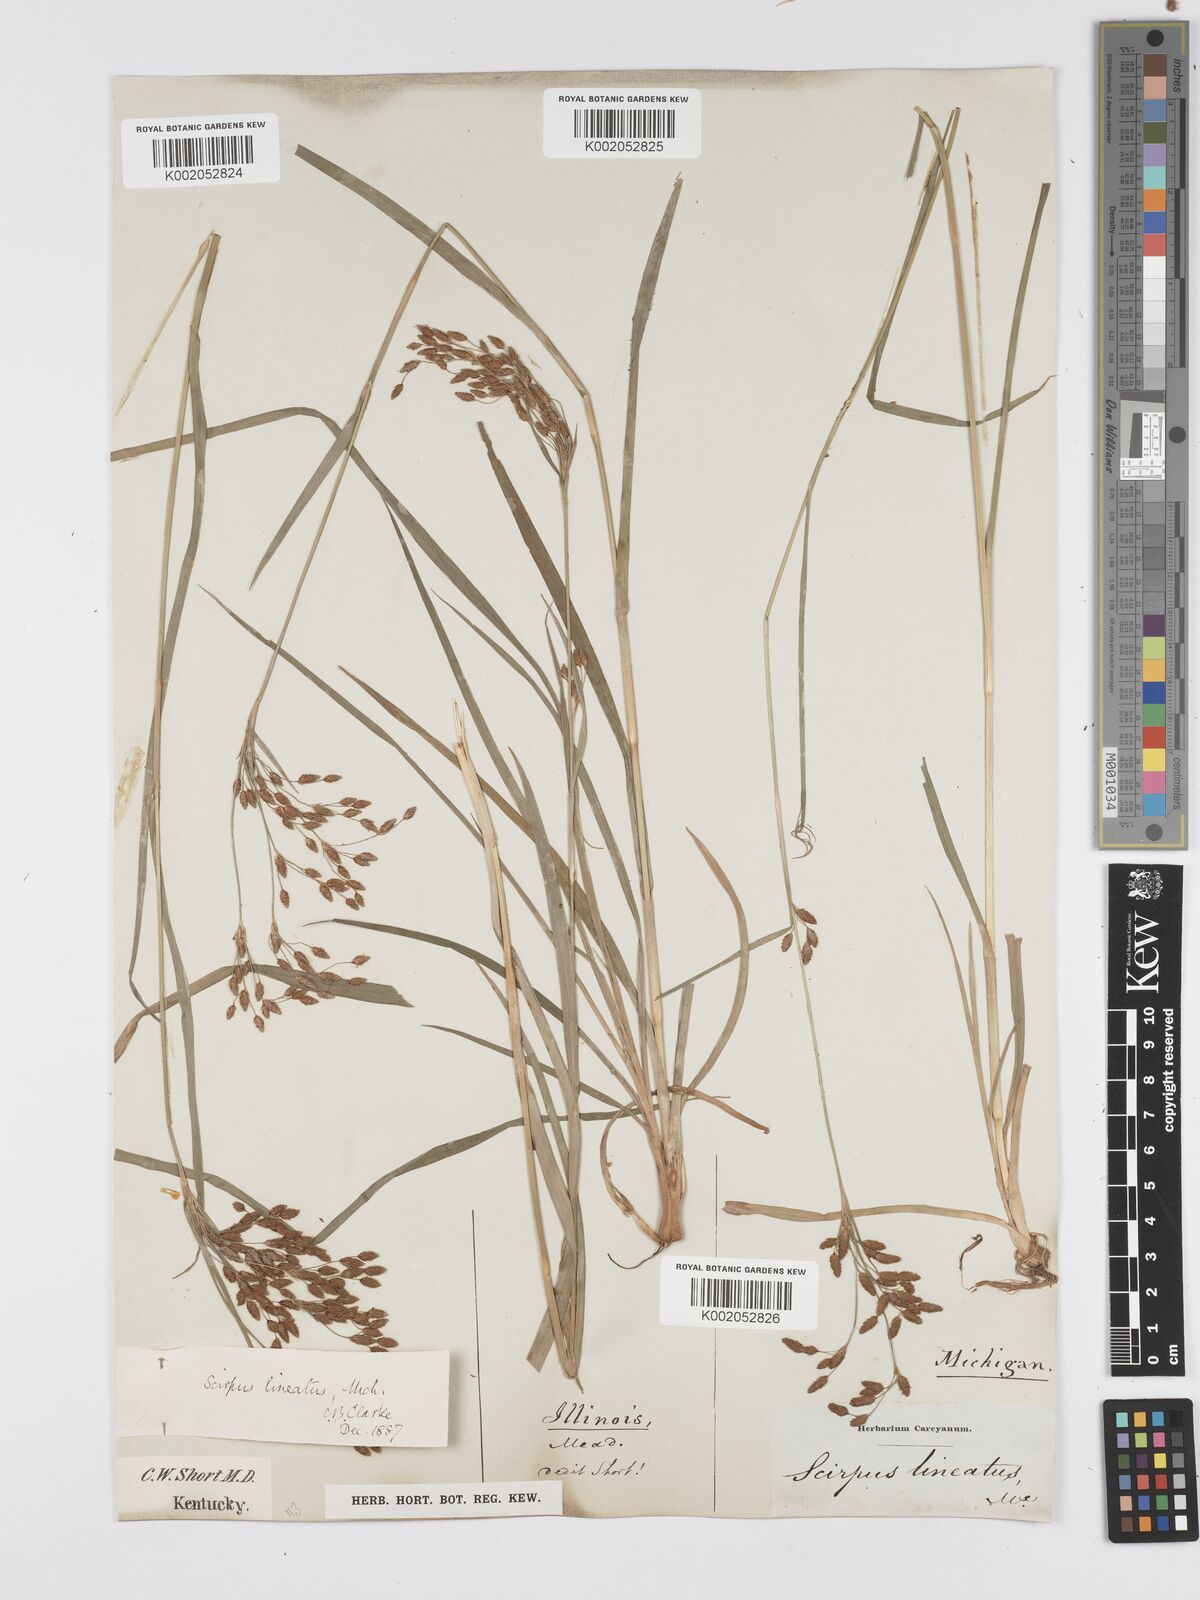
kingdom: Plantae
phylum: Tracheophyta
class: Liliopsida
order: Poales
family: Cyperaceae
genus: Scirpus
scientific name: Scirpus lineatus
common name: Drooping bulrush
